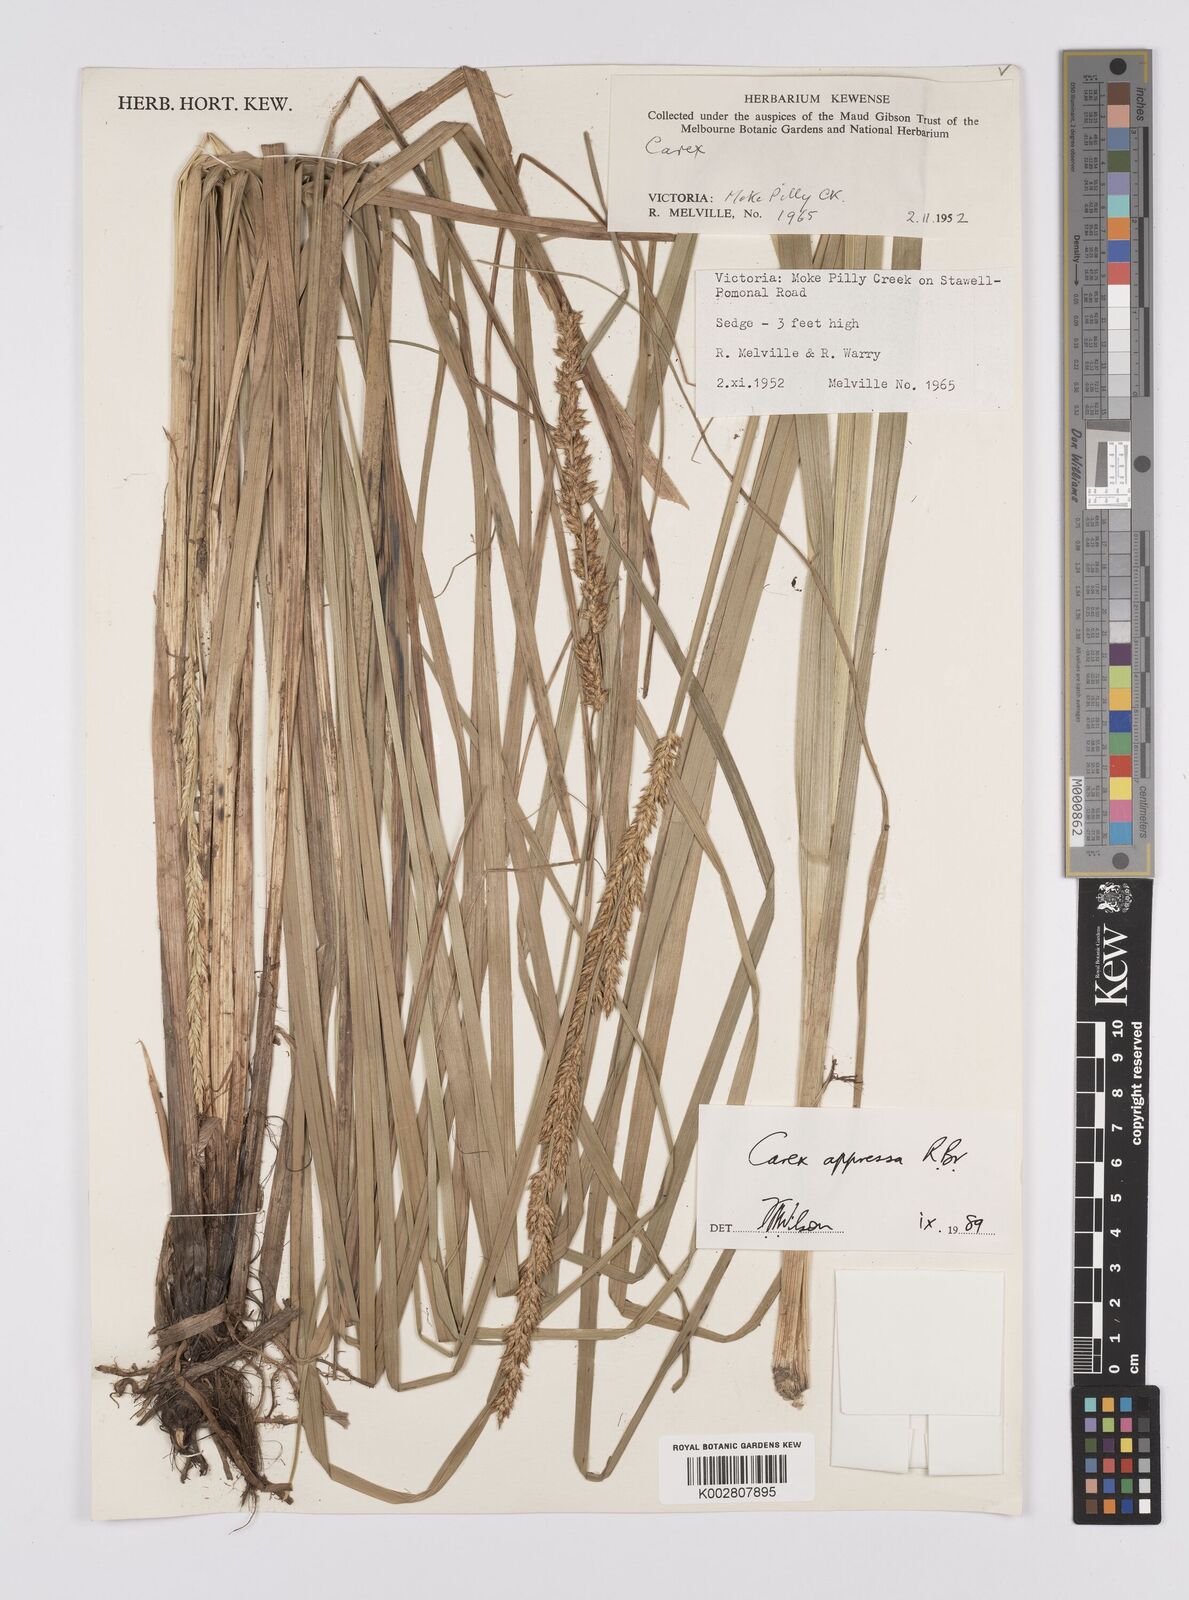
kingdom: Plantae
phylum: Tracheophyta
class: Liliopsida
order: Poales
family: Cyperaceae
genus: Carex
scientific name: Carex appressa
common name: Tussock sedge
